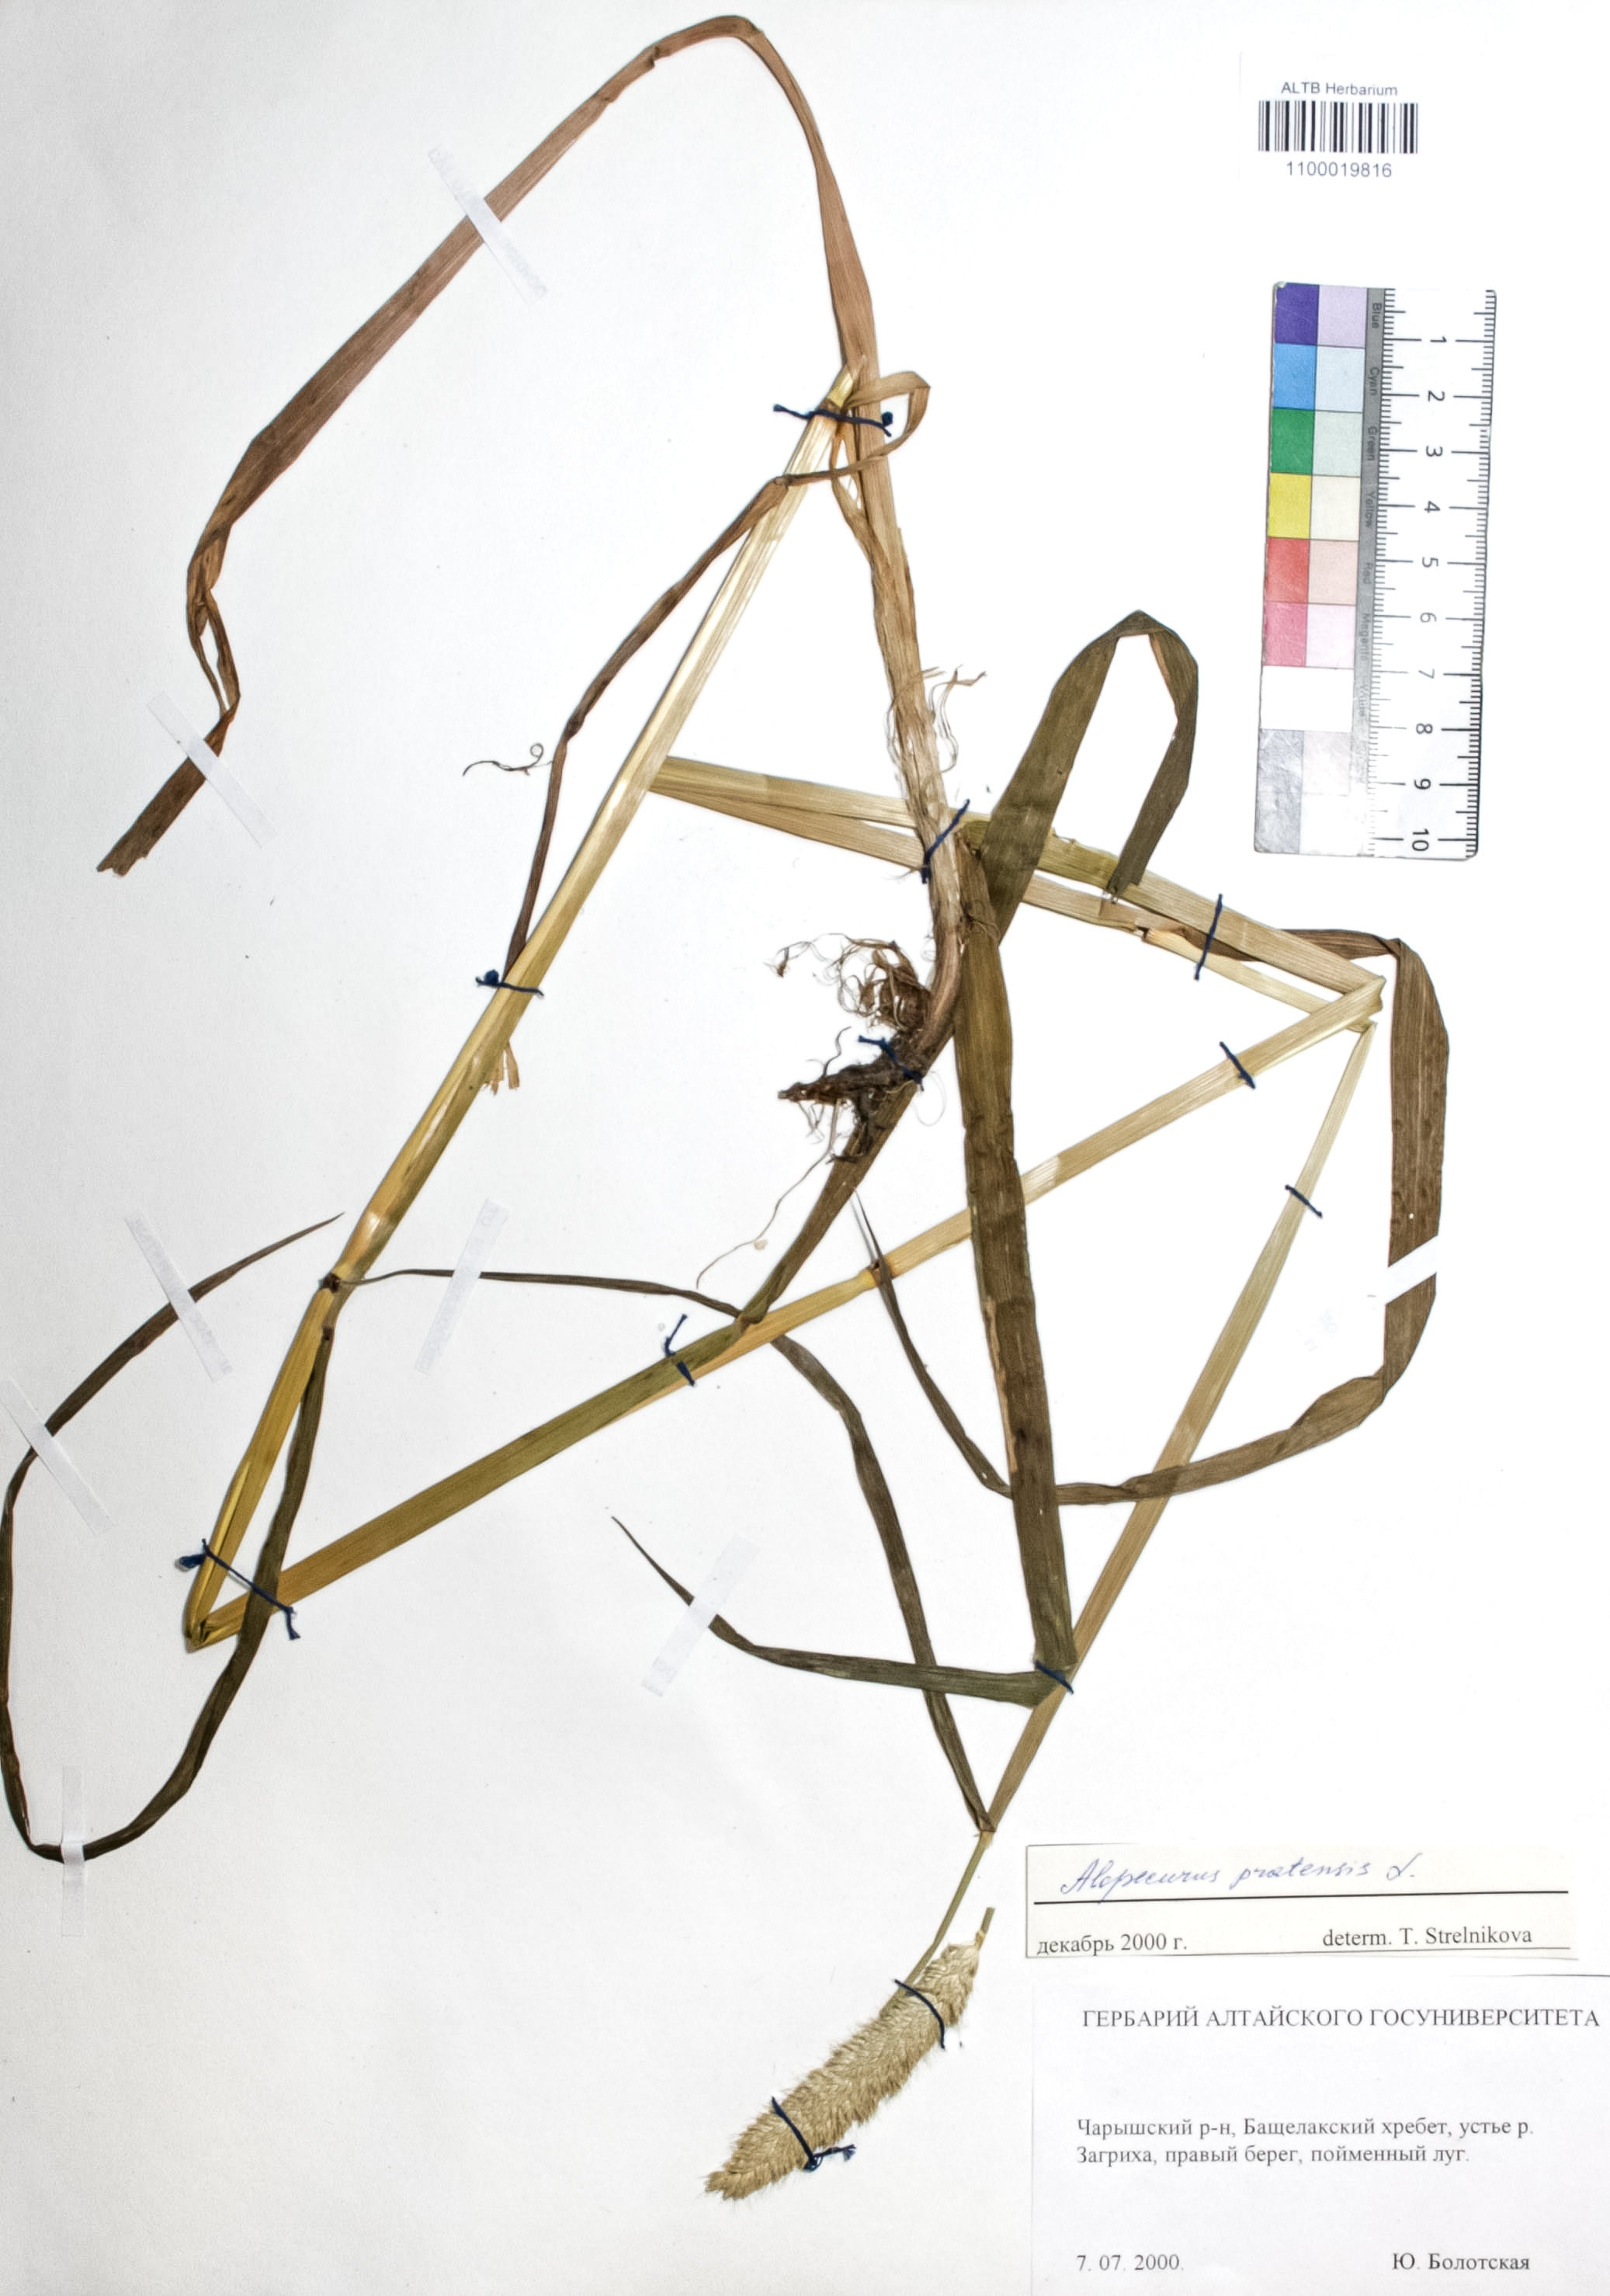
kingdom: Plantae
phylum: Tracheophyta
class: Liliopsida
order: Poales
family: Poaceae
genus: Alopecurus
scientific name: Alopecurus pratensis
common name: Meadow foxtail
